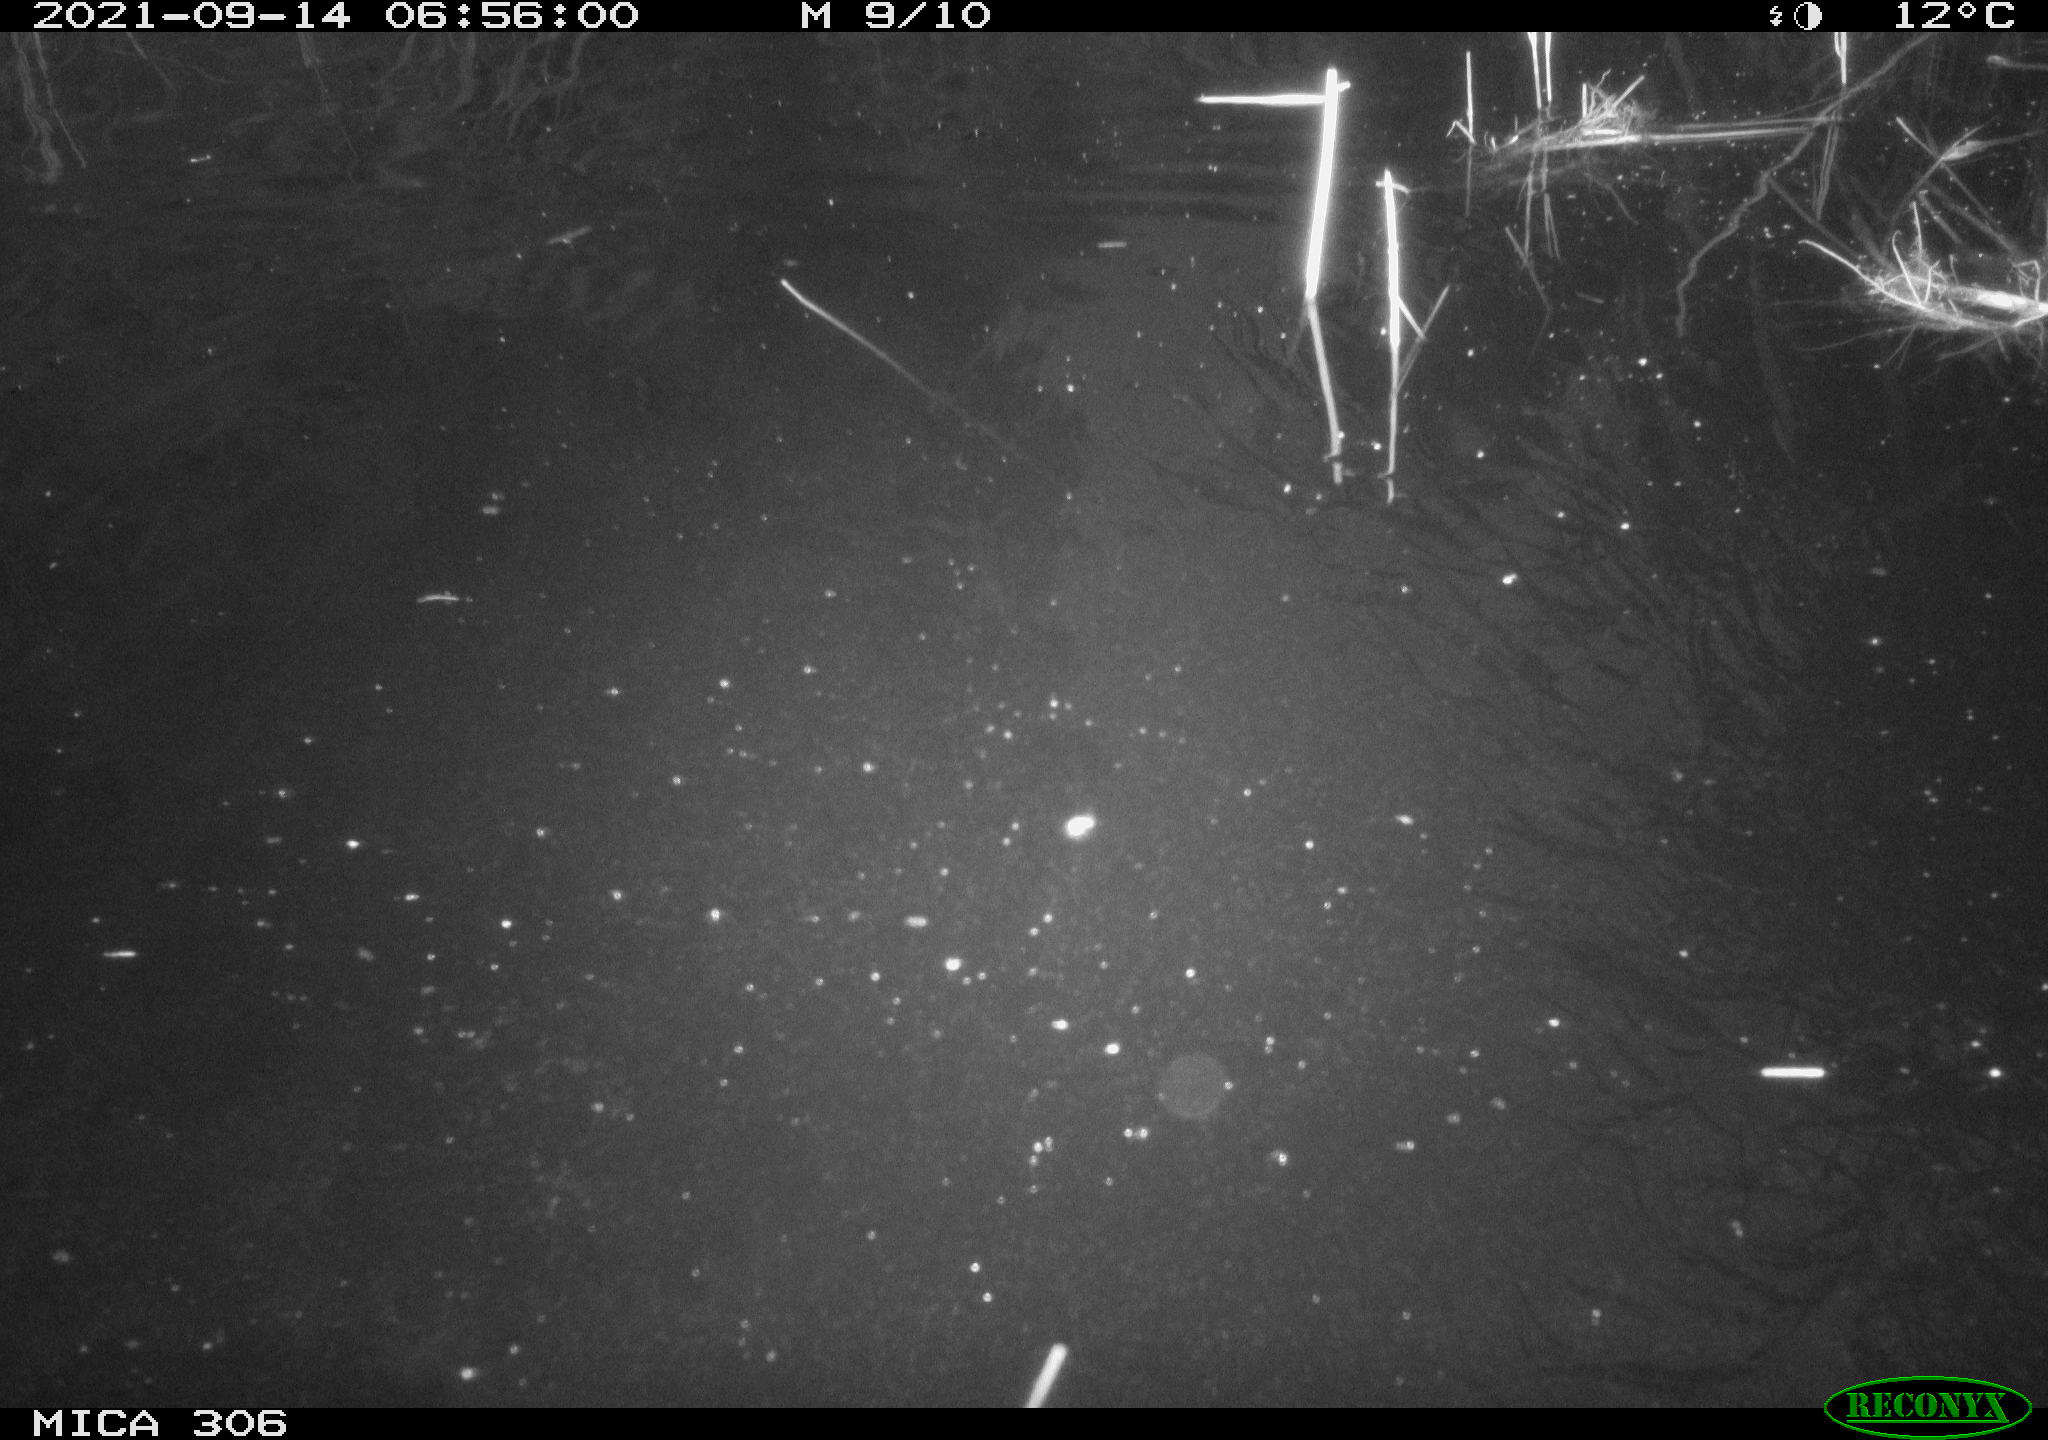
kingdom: Animalia
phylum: Chordata
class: Mammalia
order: Rodentia
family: Muridae
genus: Rattus
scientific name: Rattus norvegicus
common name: Brown rat
